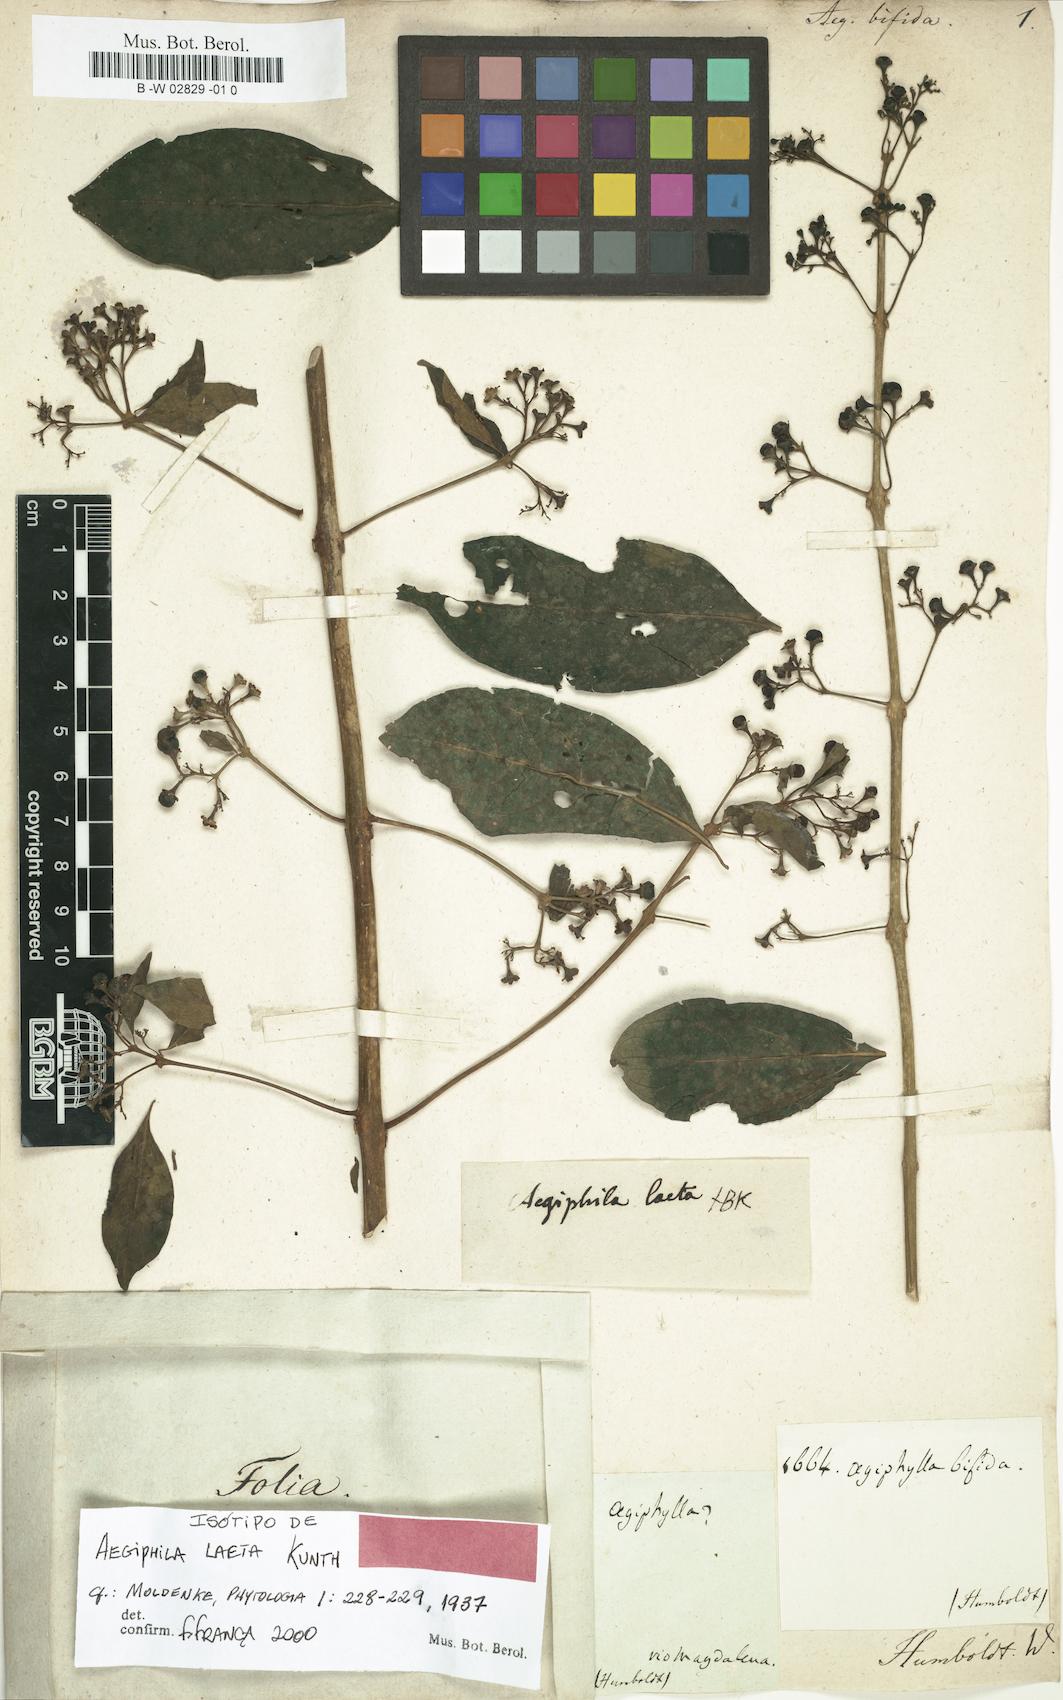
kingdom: Plantae
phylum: Tracheophyta
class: Magnoliopsida
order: Lamiales
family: Lamiaceae
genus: Aegiphila
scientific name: Aegiphila
